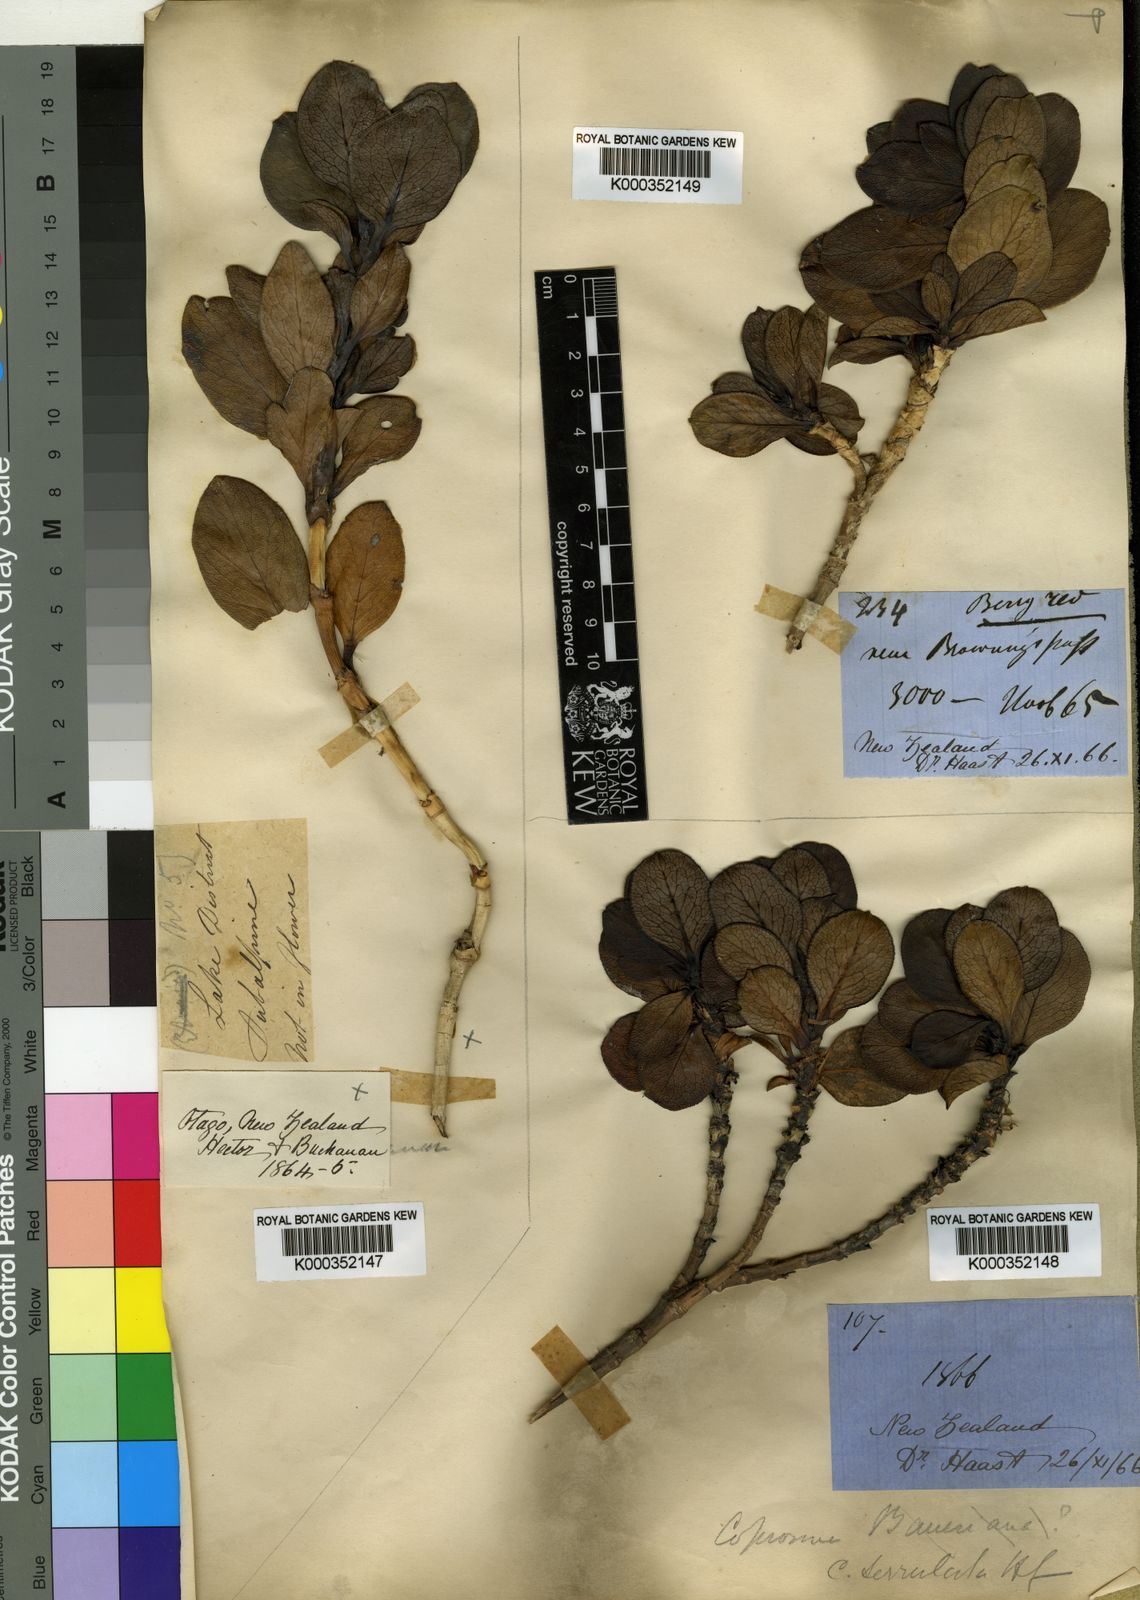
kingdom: Plantae
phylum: Tracheophyta
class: Magnoliopsida
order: Gentianales
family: Rubiaceae
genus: Coprosma
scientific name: Coprosma serrulata
